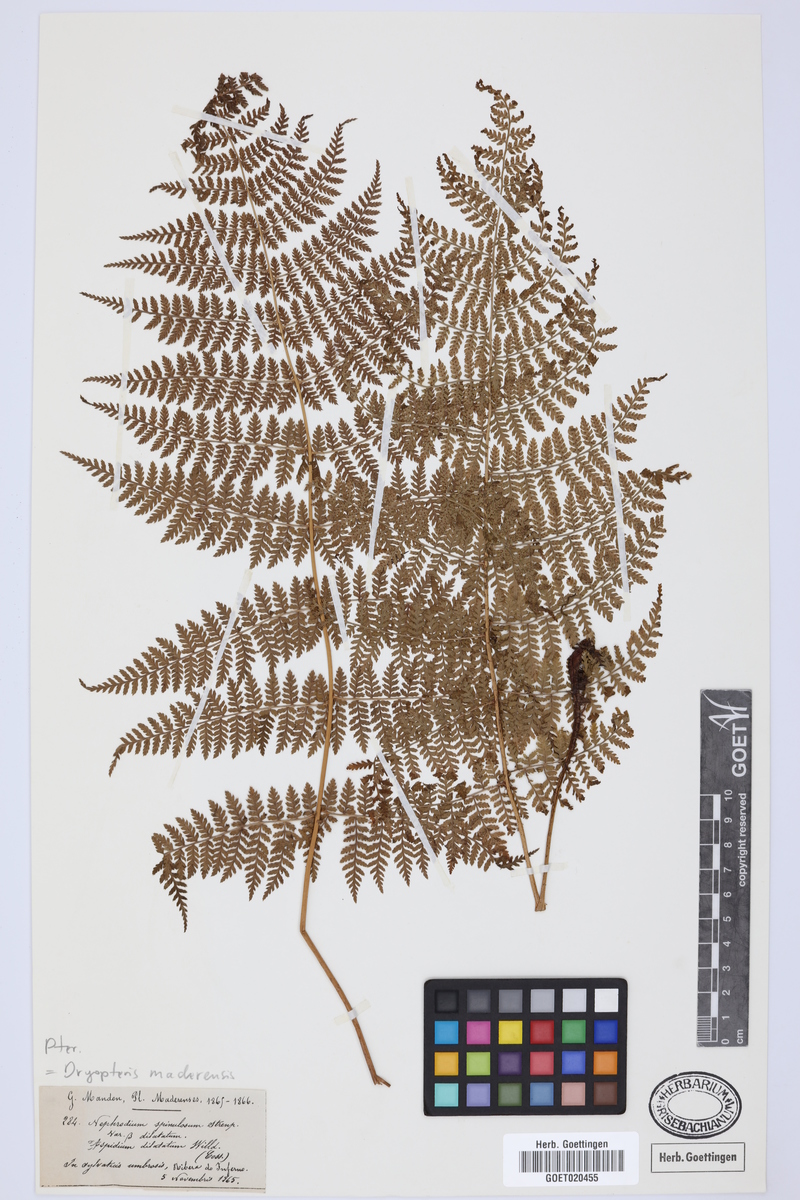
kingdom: Plantae
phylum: Tracheophyta
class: Polypodiopsida
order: Polypodiales
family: Dryopteridaceae
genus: Dryopteris
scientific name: Dryopteris intermedia
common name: Evergreen wood fern
